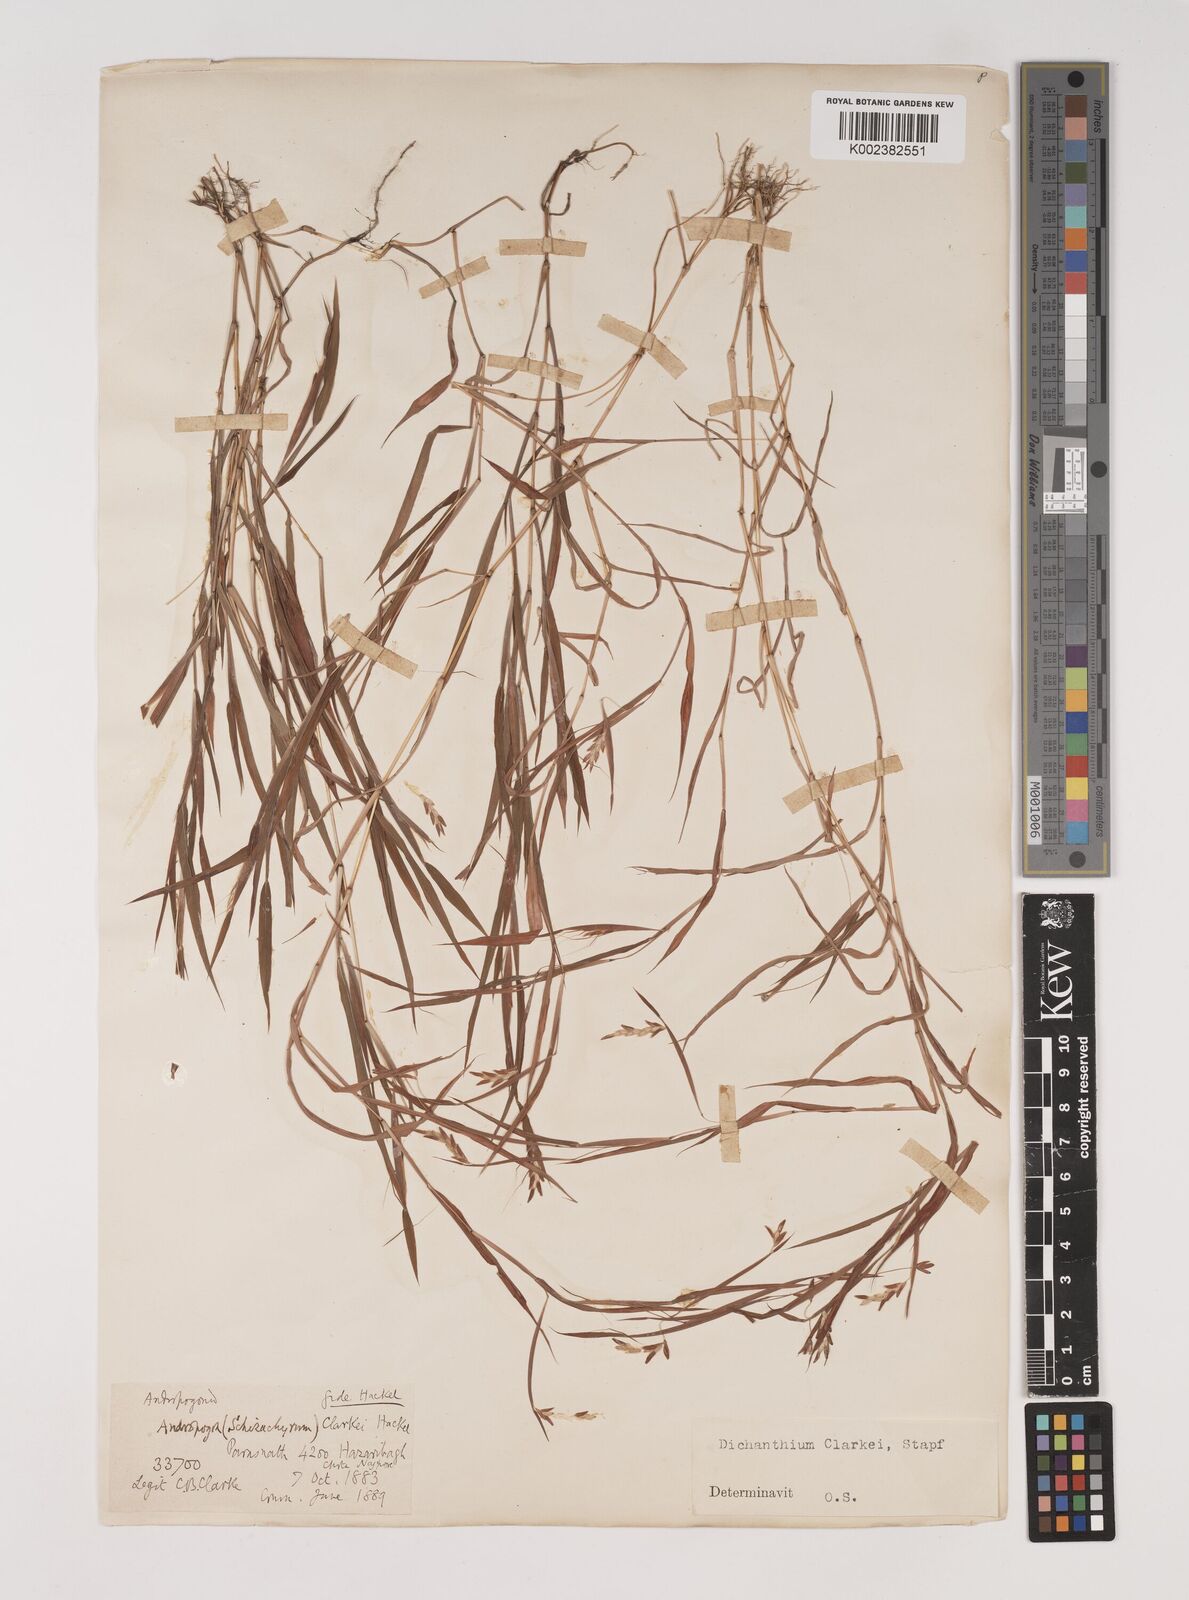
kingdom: Plantae
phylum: Tracheophyta
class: Liliopsida
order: Poales
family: Poaceae
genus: Euclasta
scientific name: Euclasta clarkei
